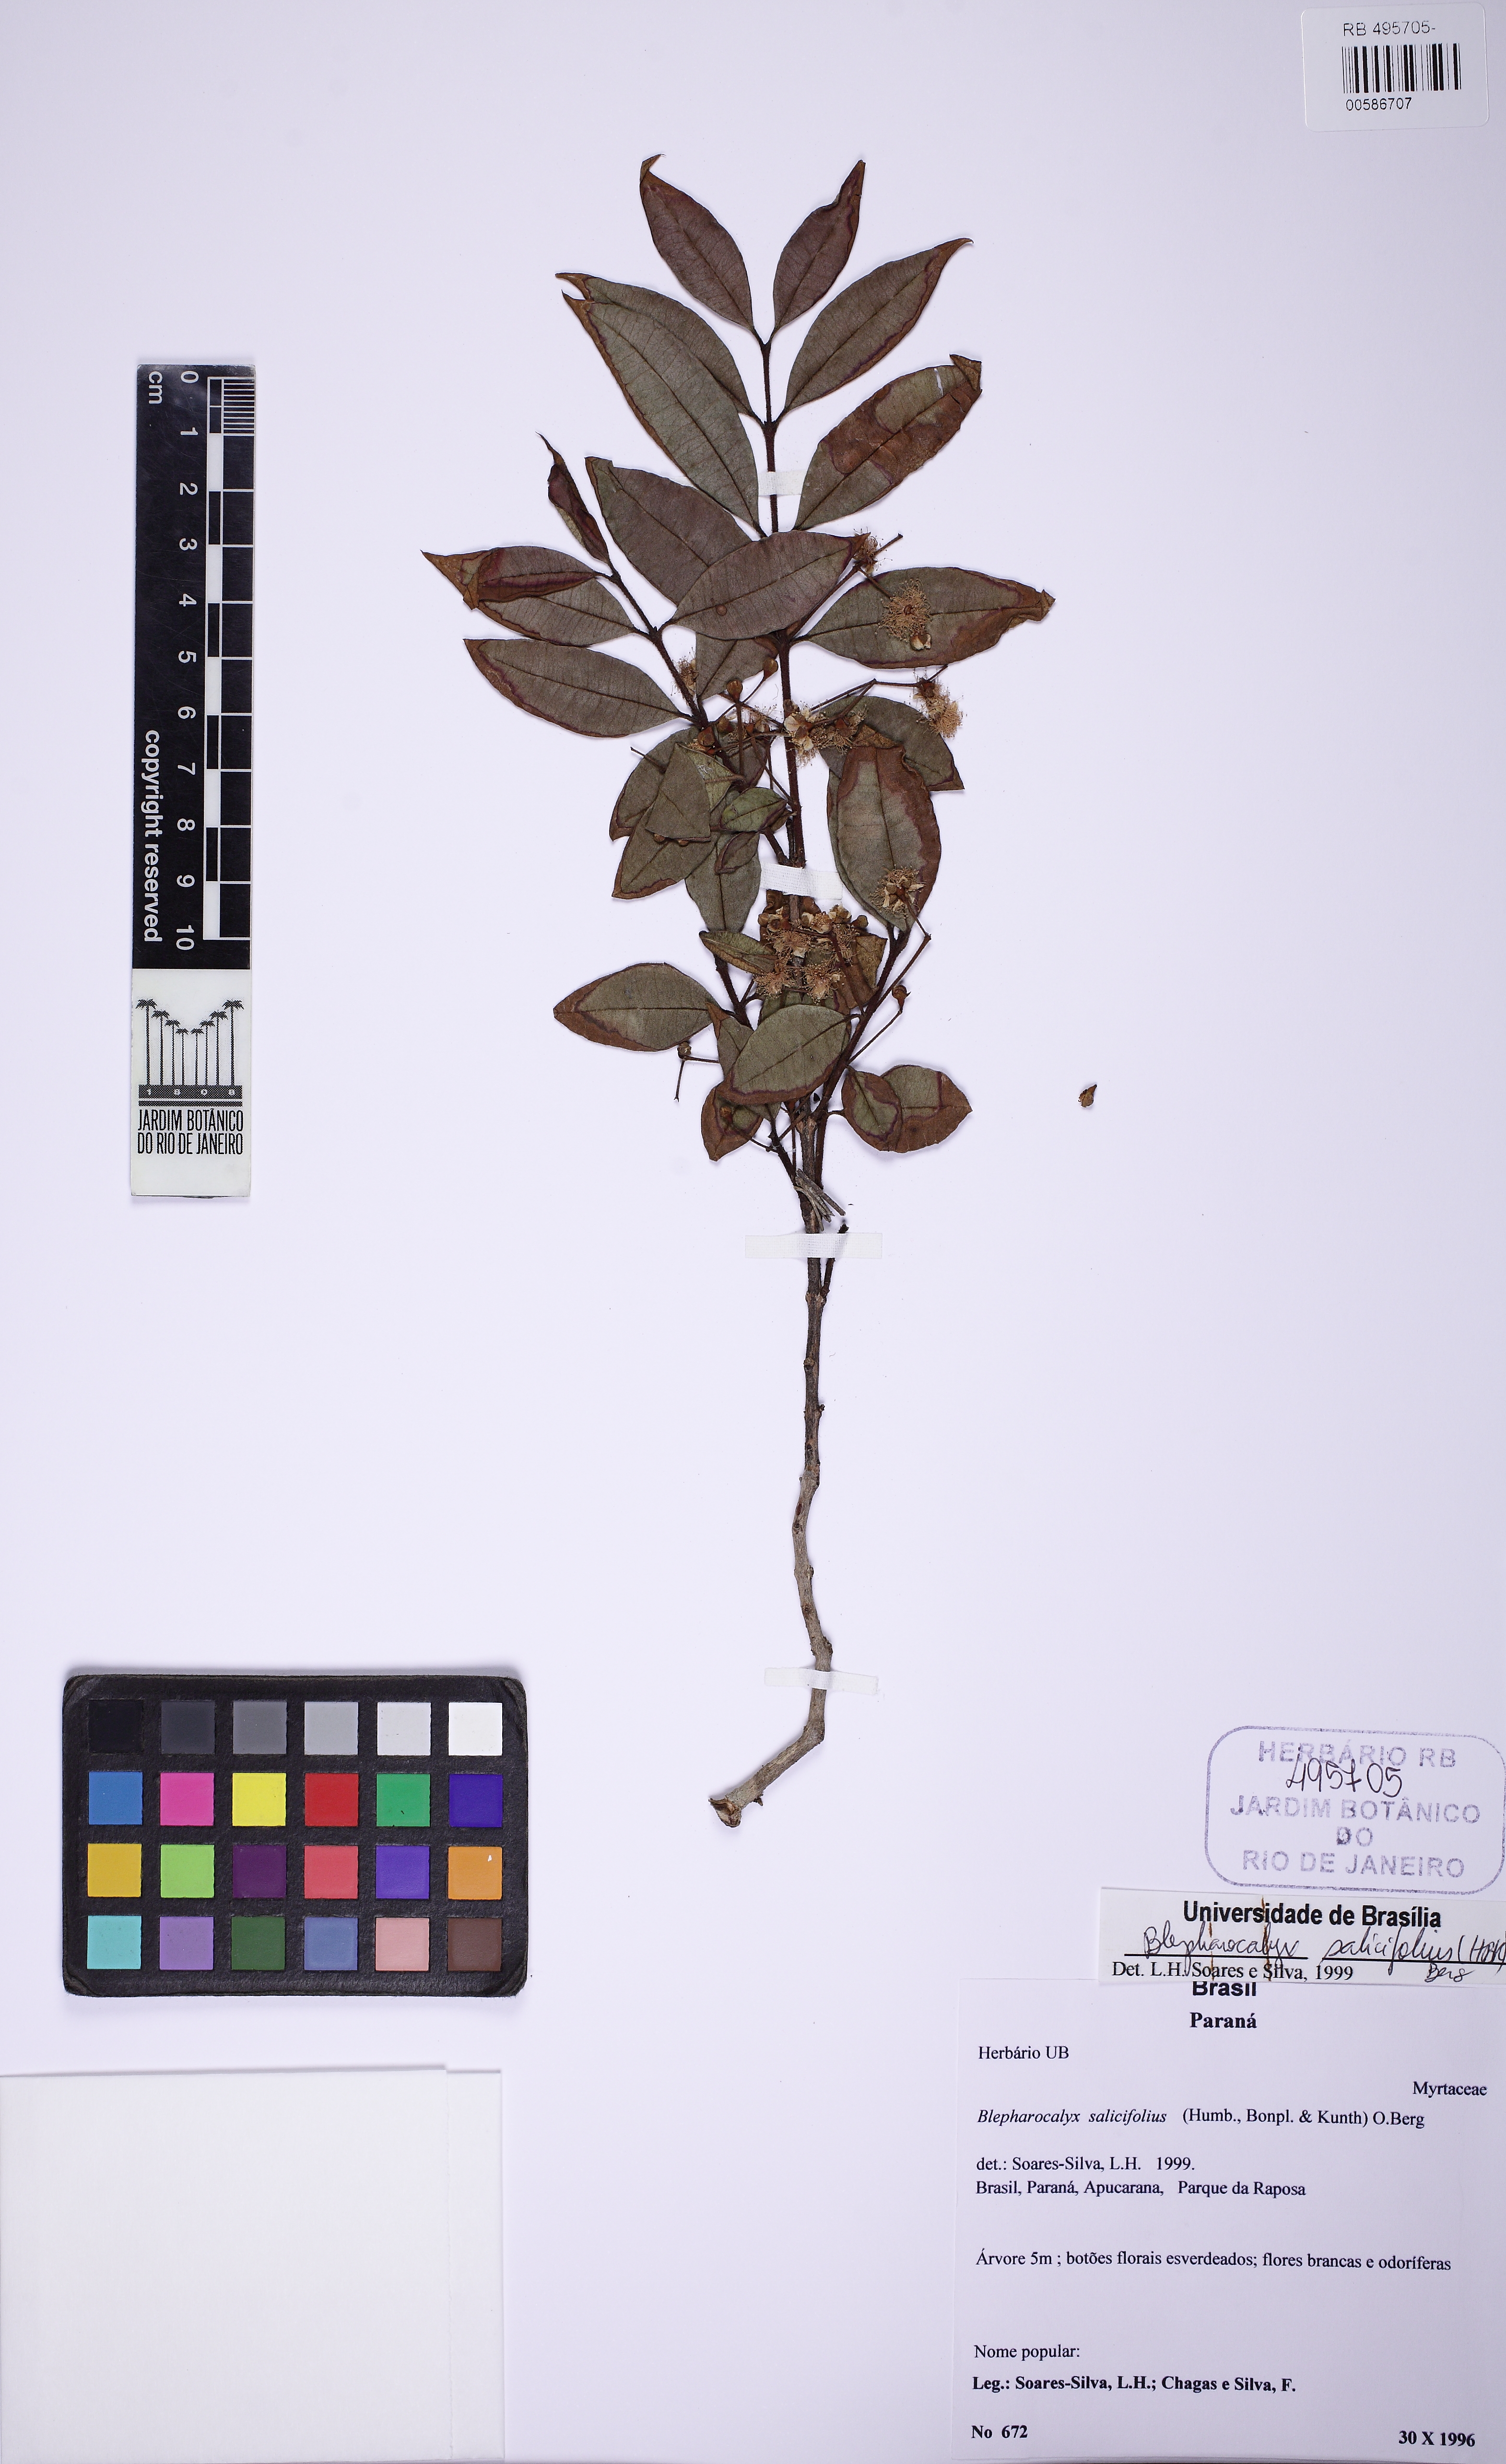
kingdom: Plantae
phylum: Tracheophyta
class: Magnoliopsida
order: Myrtales
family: Myrtaceae
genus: Blepharocalyx
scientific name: Blepharocalyx salicifolius
